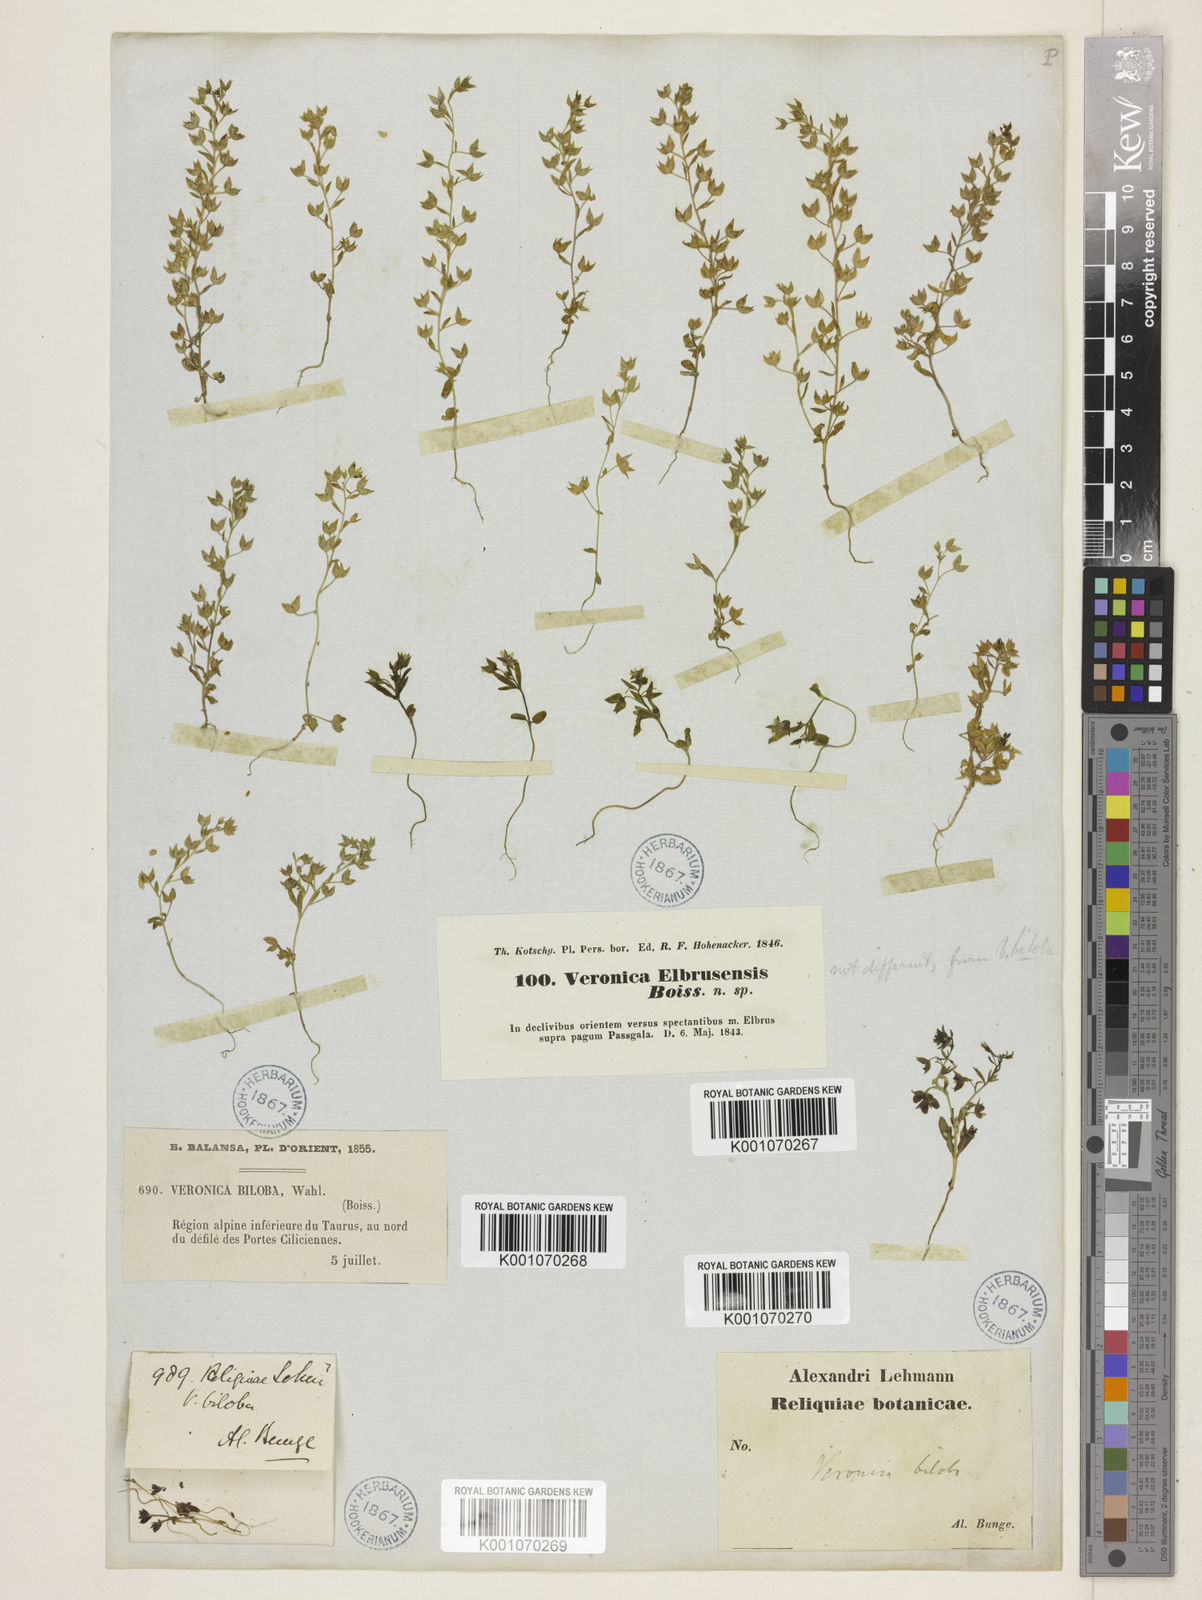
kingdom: Plantae
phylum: Tracheophyta
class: Magnoliopsida
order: Lamiales
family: Plantaginaceae
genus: Veronica
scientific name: Veronica biloba
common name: Twolobe speedwell
